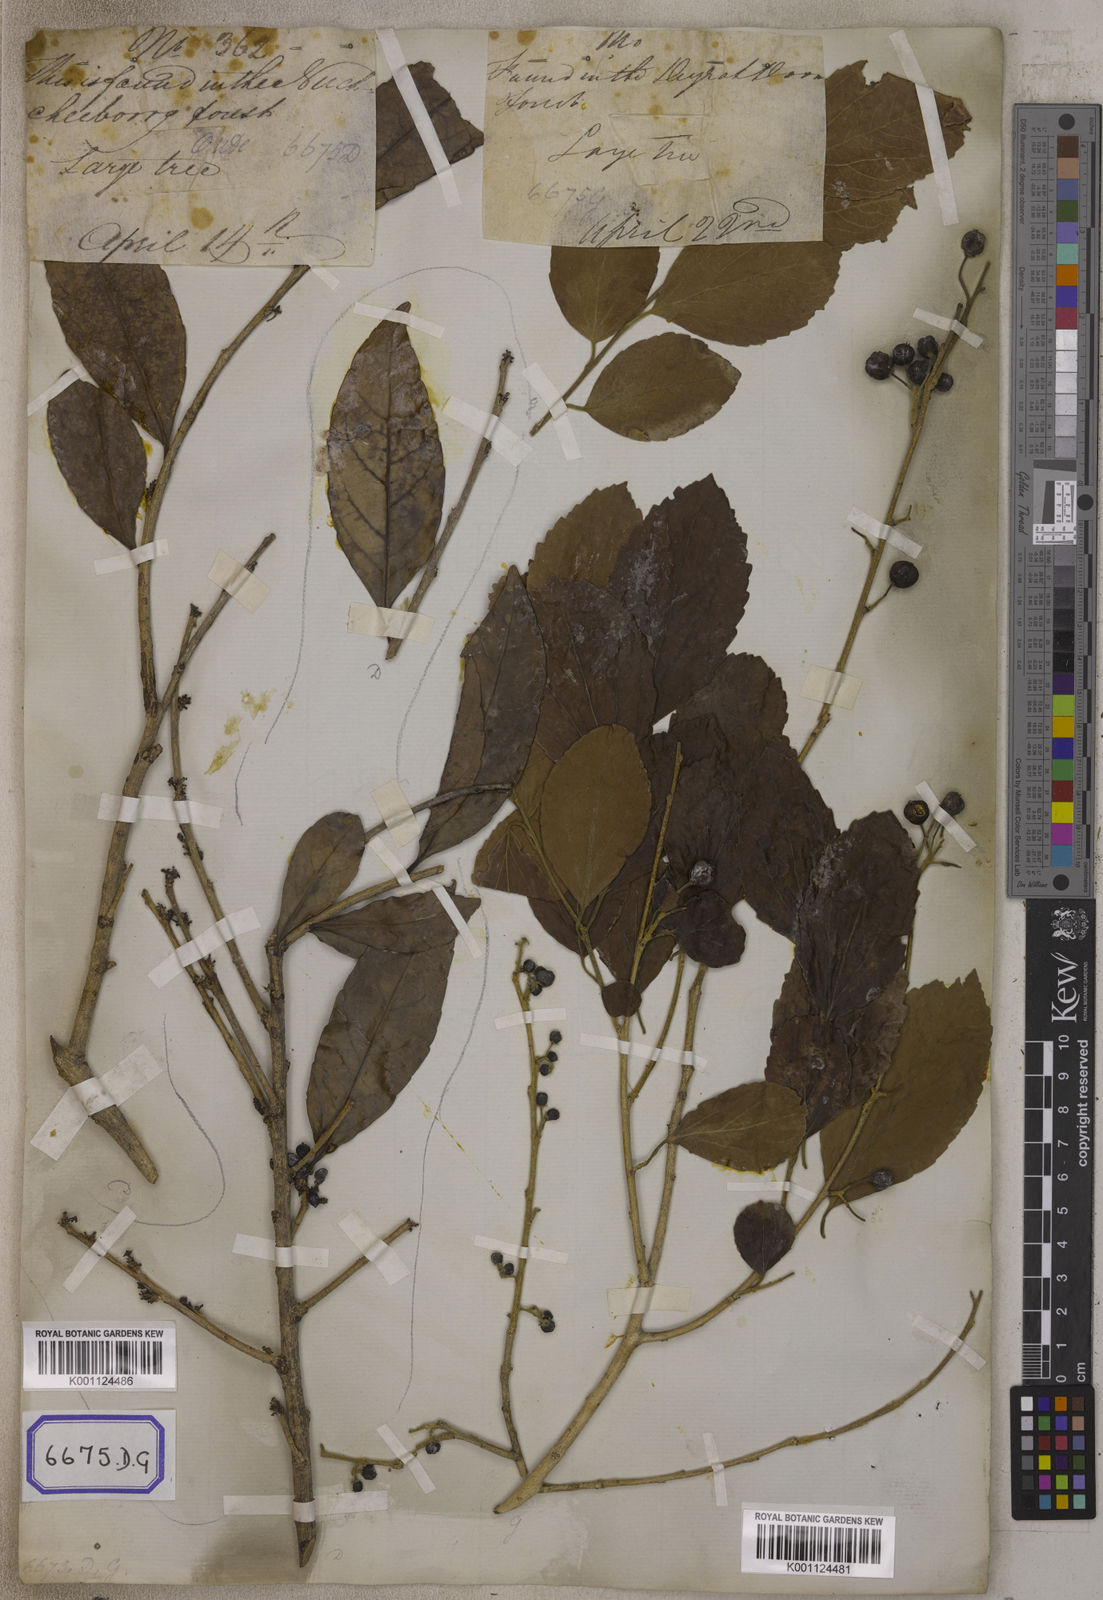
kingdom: Plantae
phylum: Tracheophyta
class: Magnoliopsida
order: Malpighiales
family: Salicaceae
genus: Flacourtia
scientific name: Flacourtia
